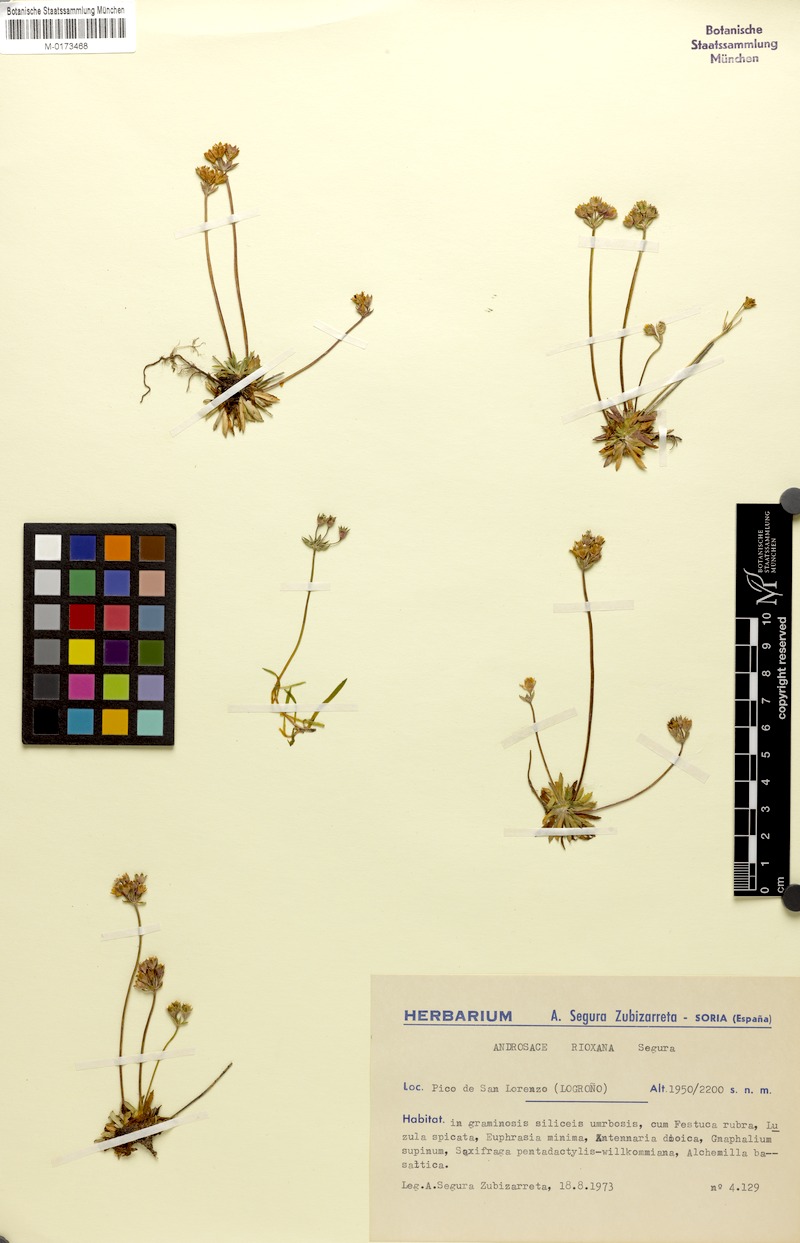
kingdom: Plantae
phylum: Tracheophyta
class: Magnoliopsida
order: Ericales
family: Primulaceae
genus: Androsace
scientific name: Androsace rioxana
